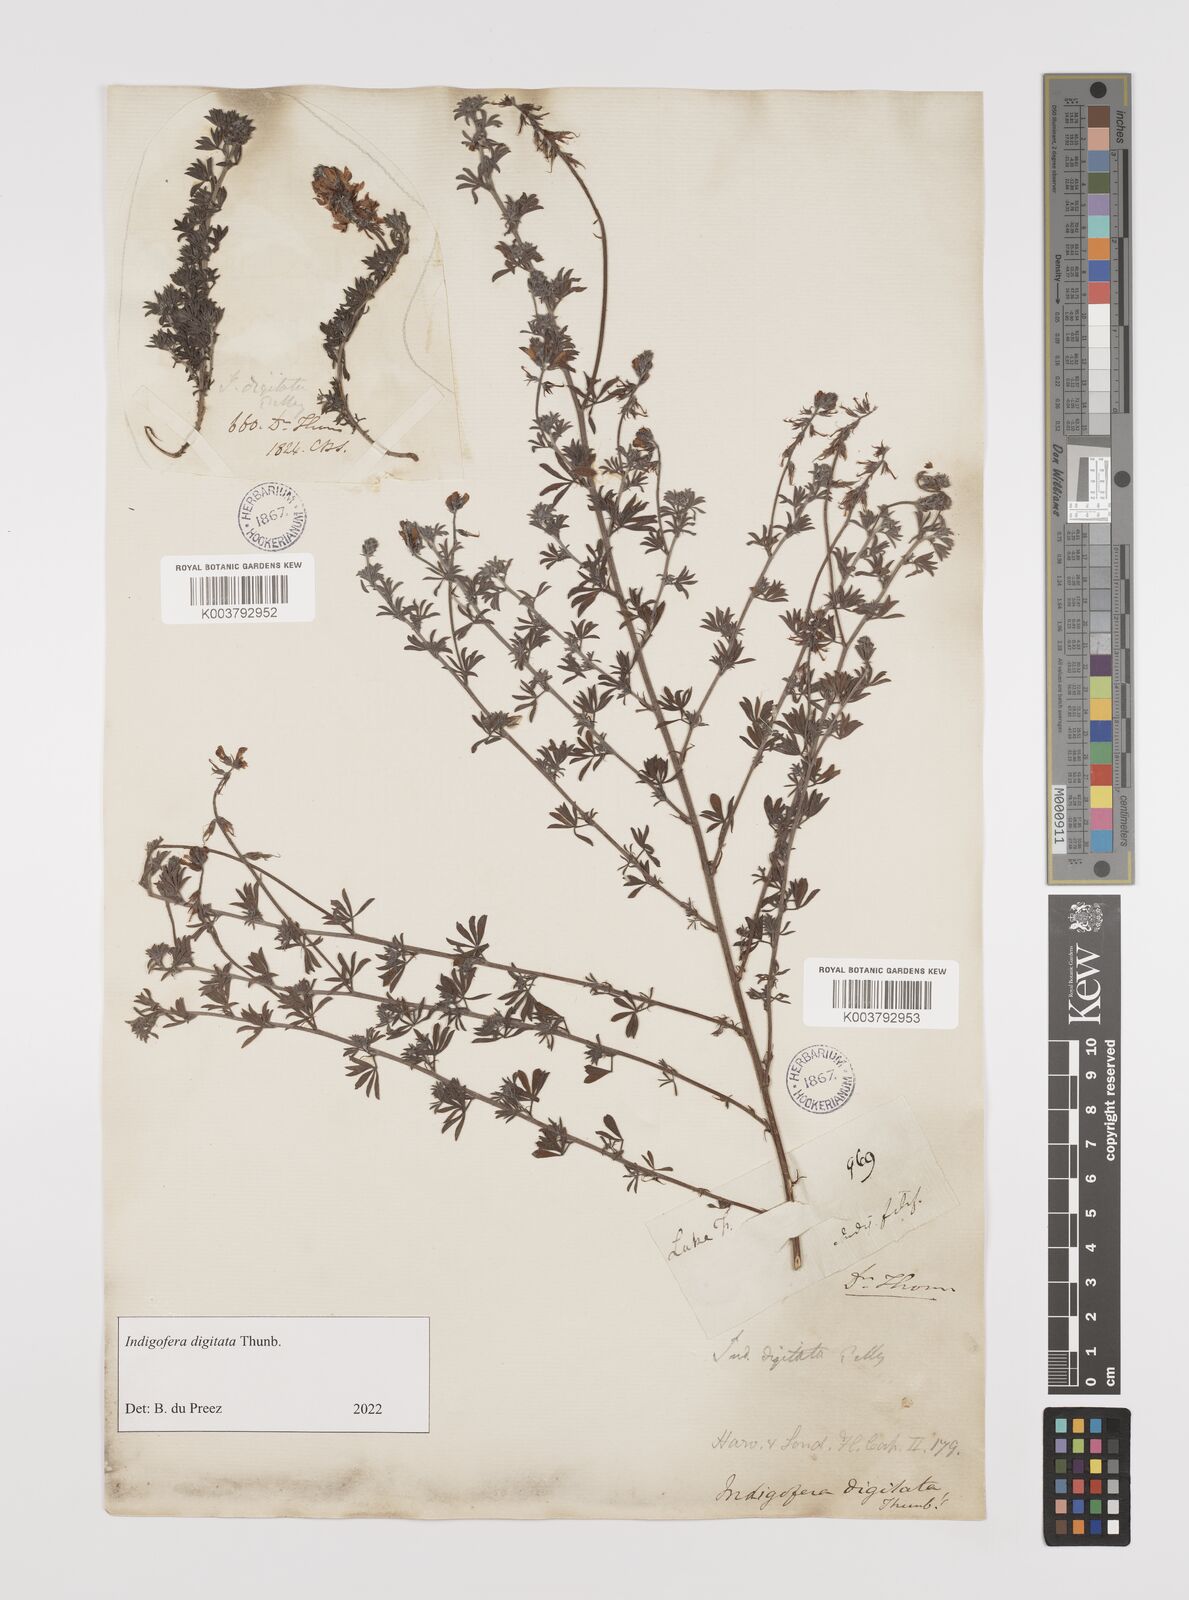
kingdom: Plantae
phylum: Tracheophyta
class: Magnoliopsida
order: Fabales
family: Fabaceae
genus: Indigofera
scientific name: Indigofera
